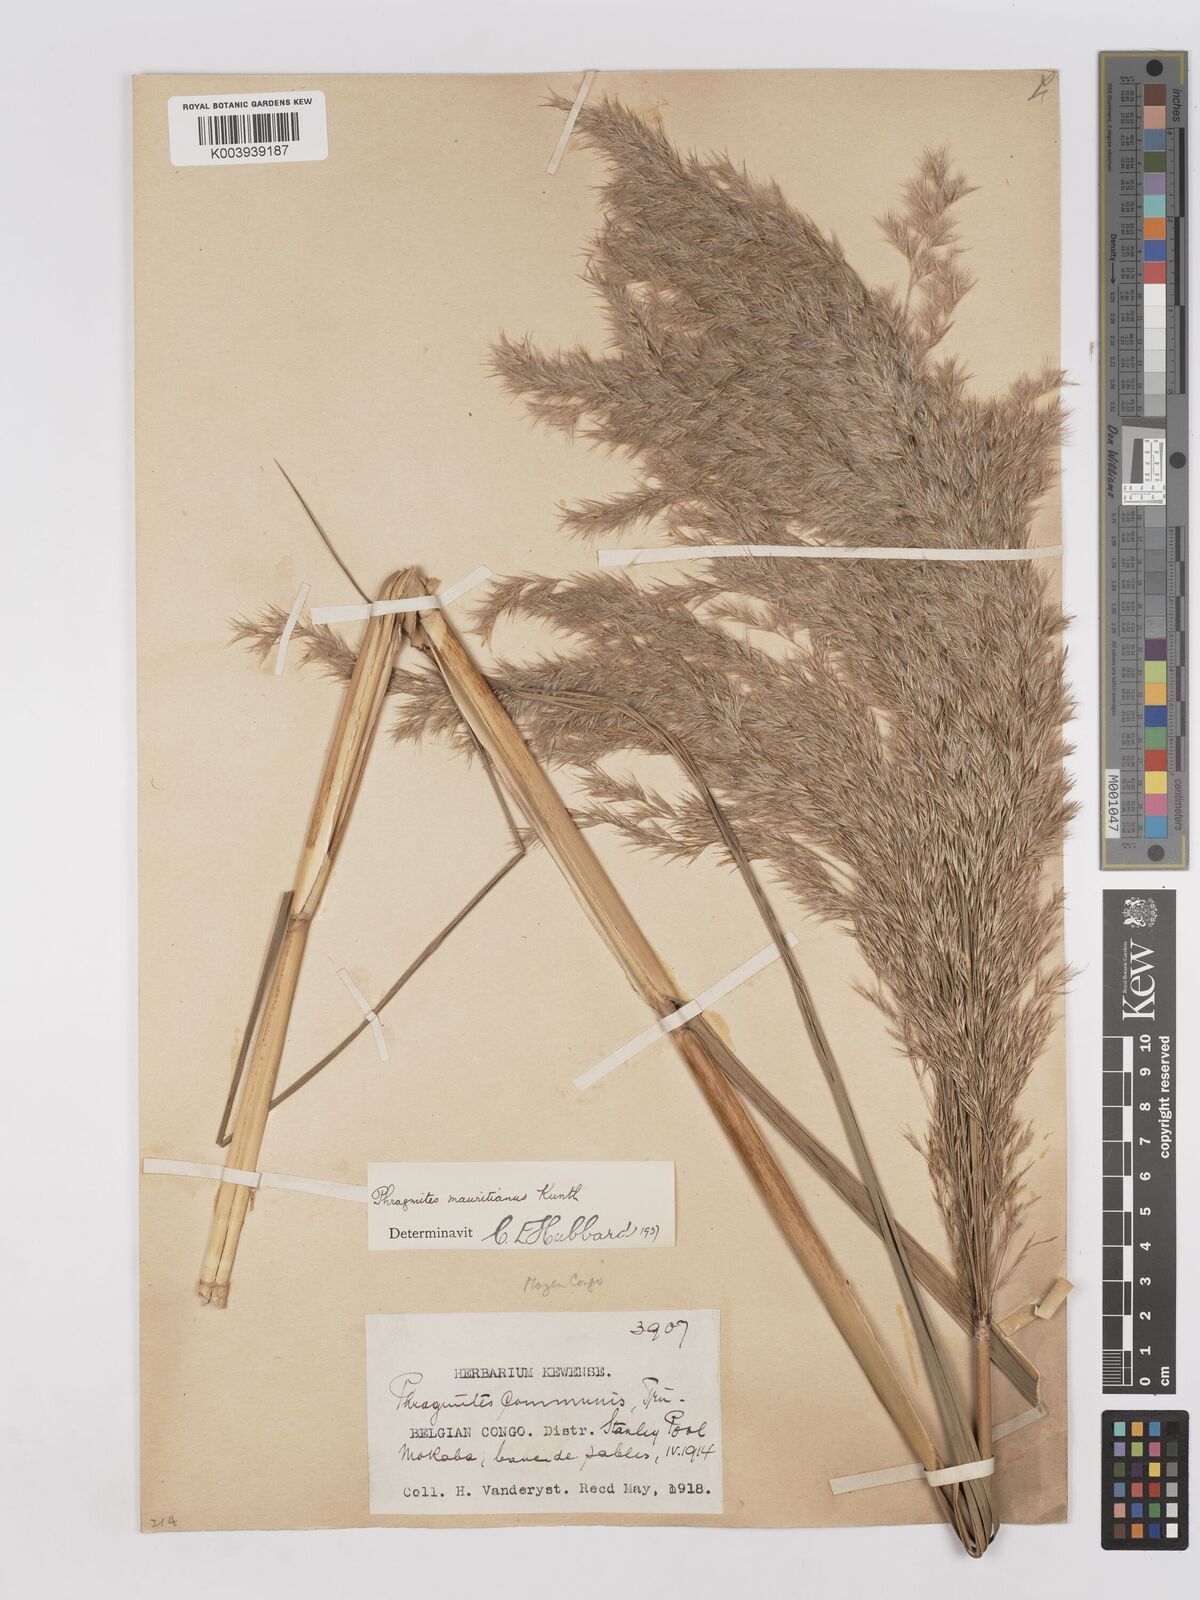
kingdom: Plantae
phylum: Tracheophyta
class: Liliopsida
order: Poales
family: Poaceae
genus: Phragmites
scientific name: Phragmites mauritianus
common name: Reed grass
